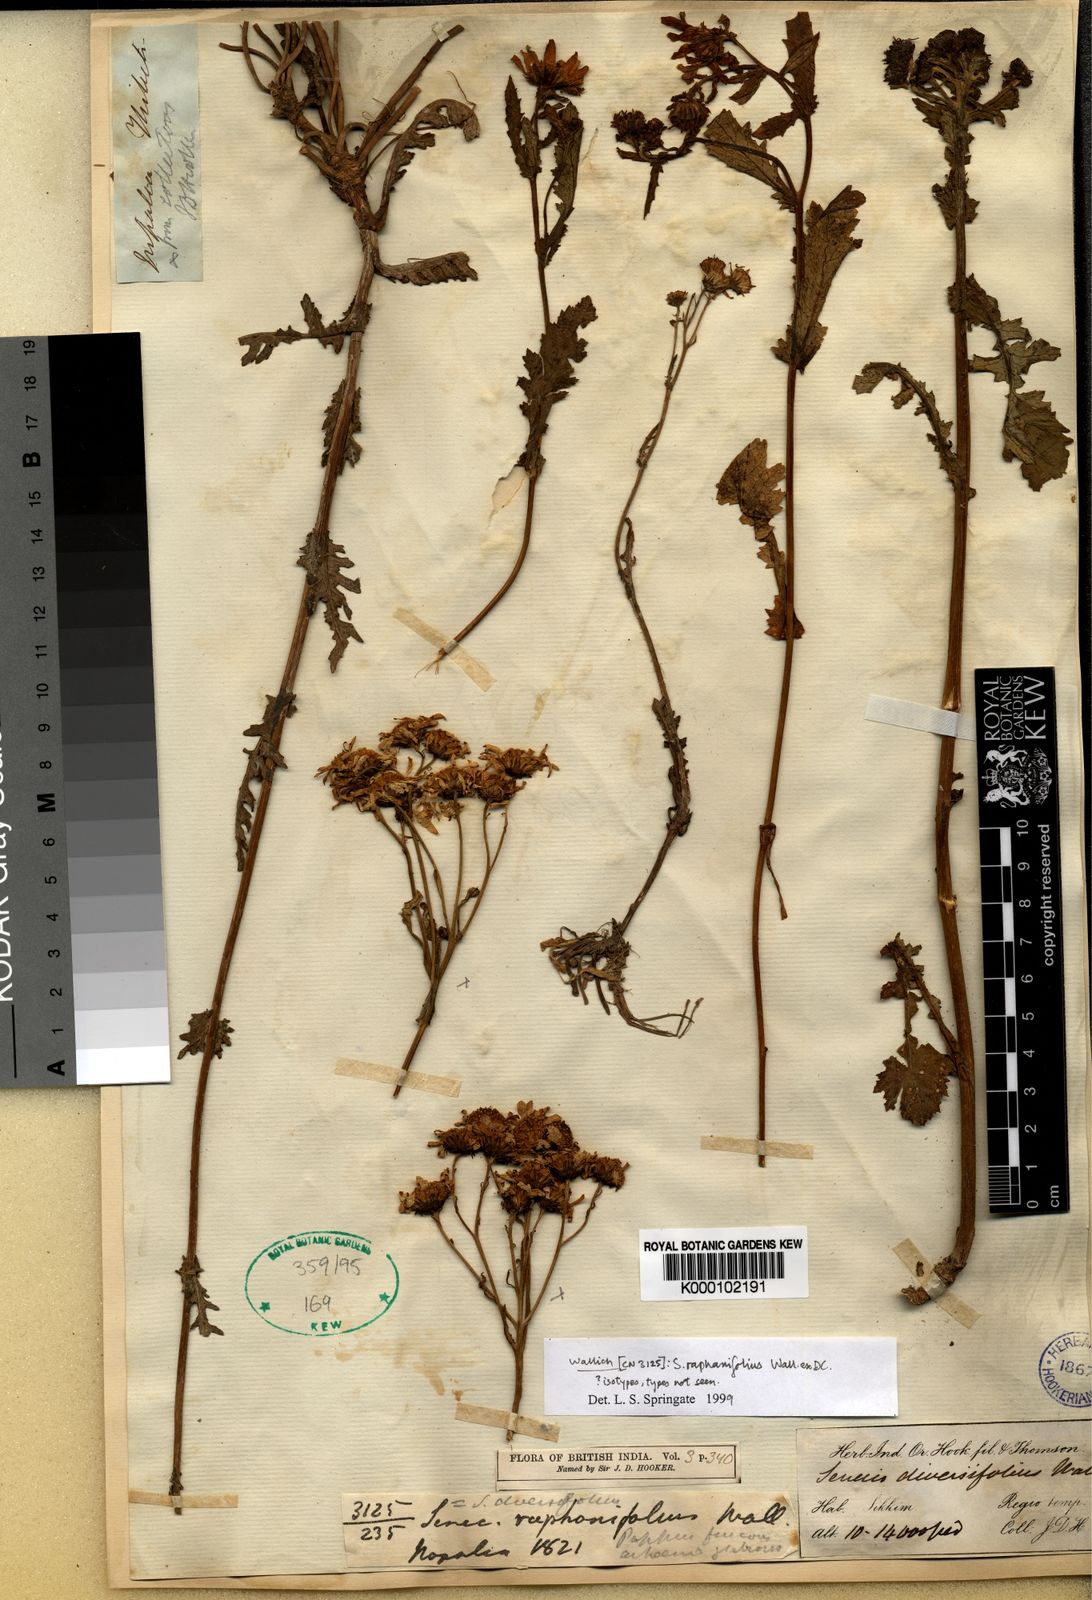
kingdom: Plantae
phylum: Tracheophyta
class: Magnoliopsida
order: Asterales
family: Asteraceae
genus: Jacobaea
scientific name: Jacobaea raphanifolia
